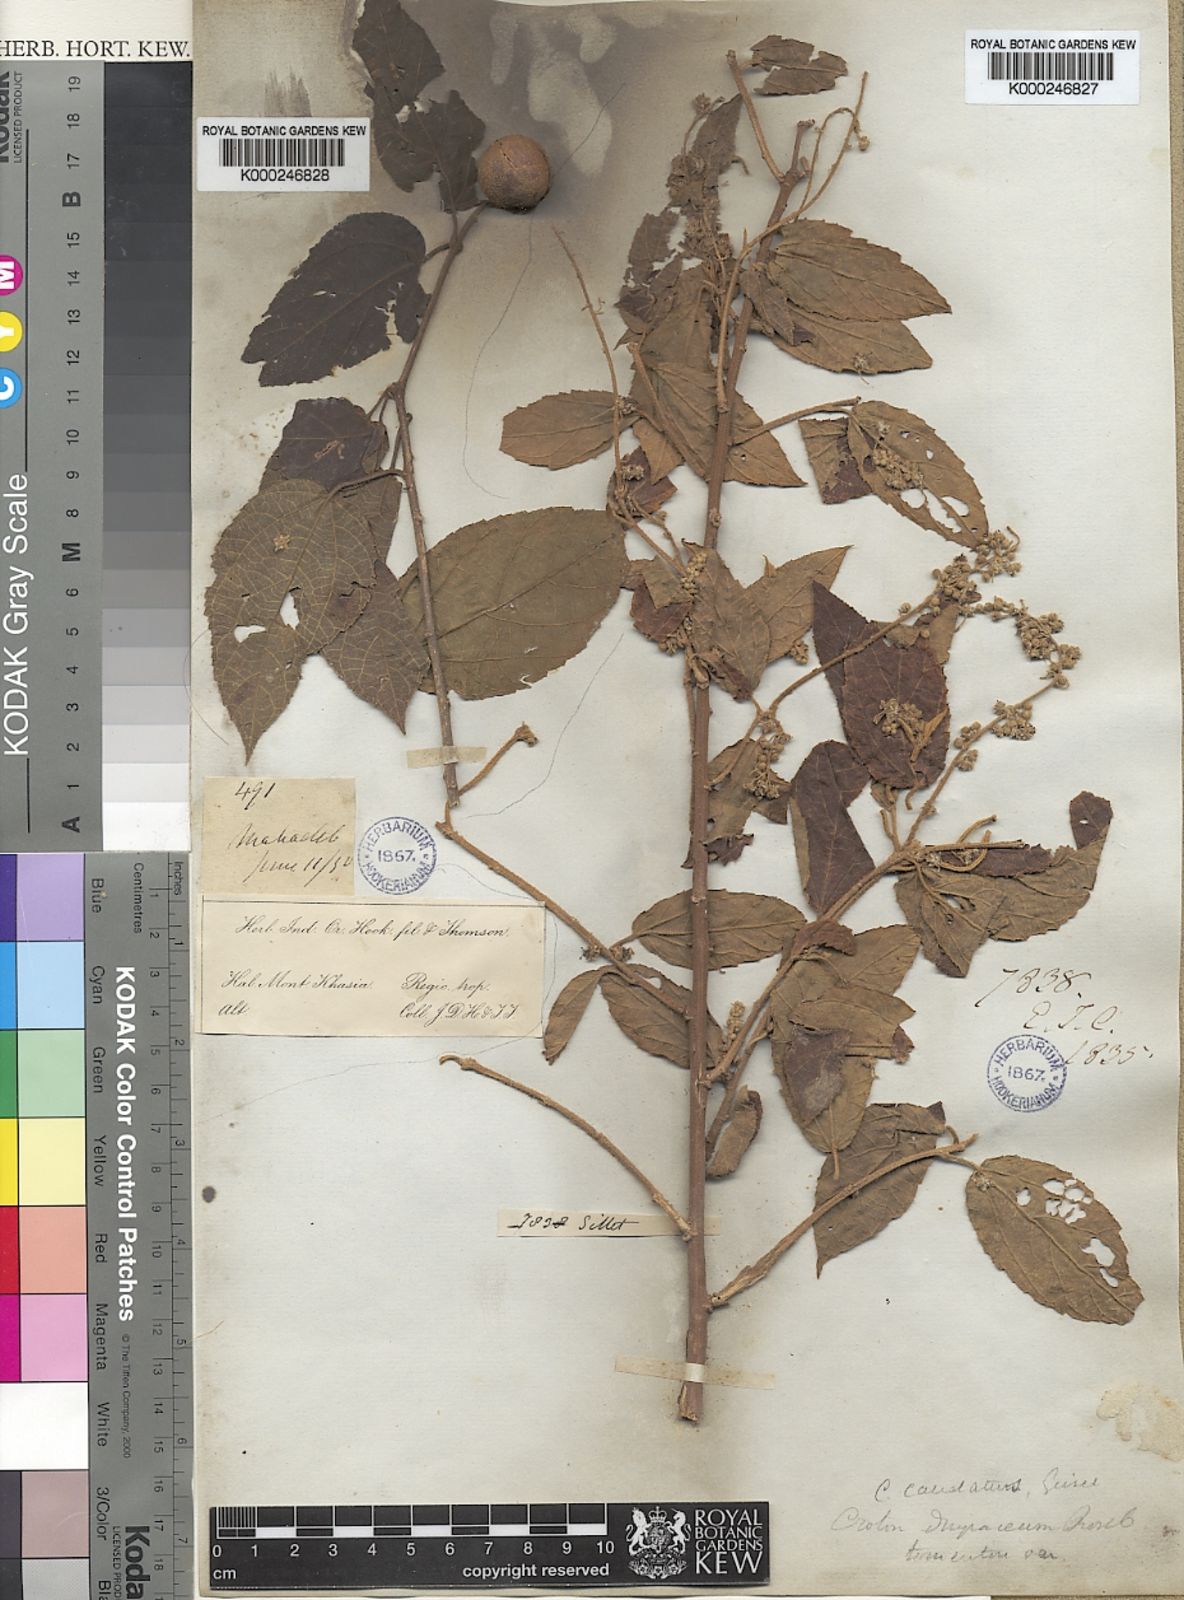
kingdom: Plantae
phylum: Tracheophyta
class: Magnoliopsida
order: Malpighiales
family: Euphorbiaceae
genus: Croton
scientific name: Croton caudatus
